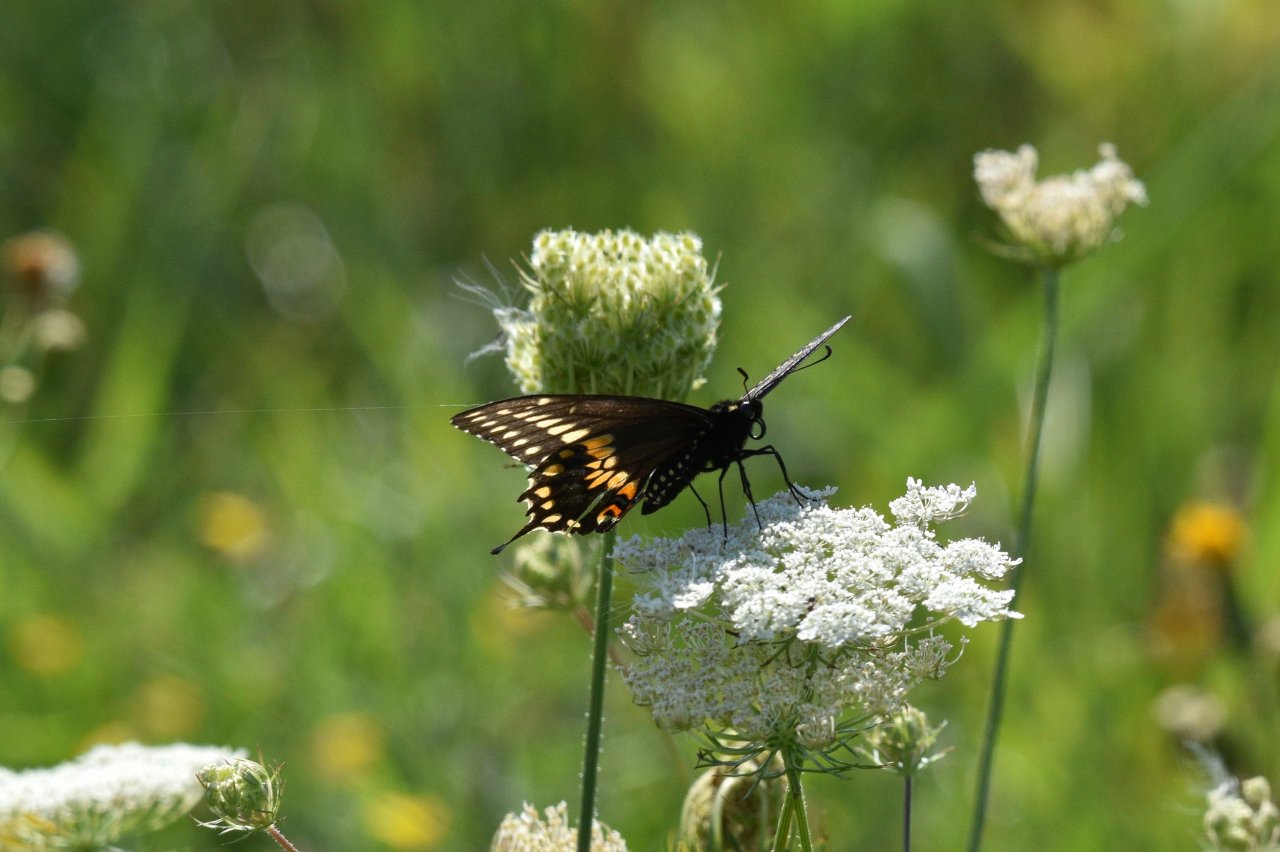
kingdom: Animalia
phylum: Arthropoda
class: Insecta
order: Lepidoptera
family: Papilionidae
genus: Papilio
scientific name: Papilio polyxenes
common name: Black Swallowtail
